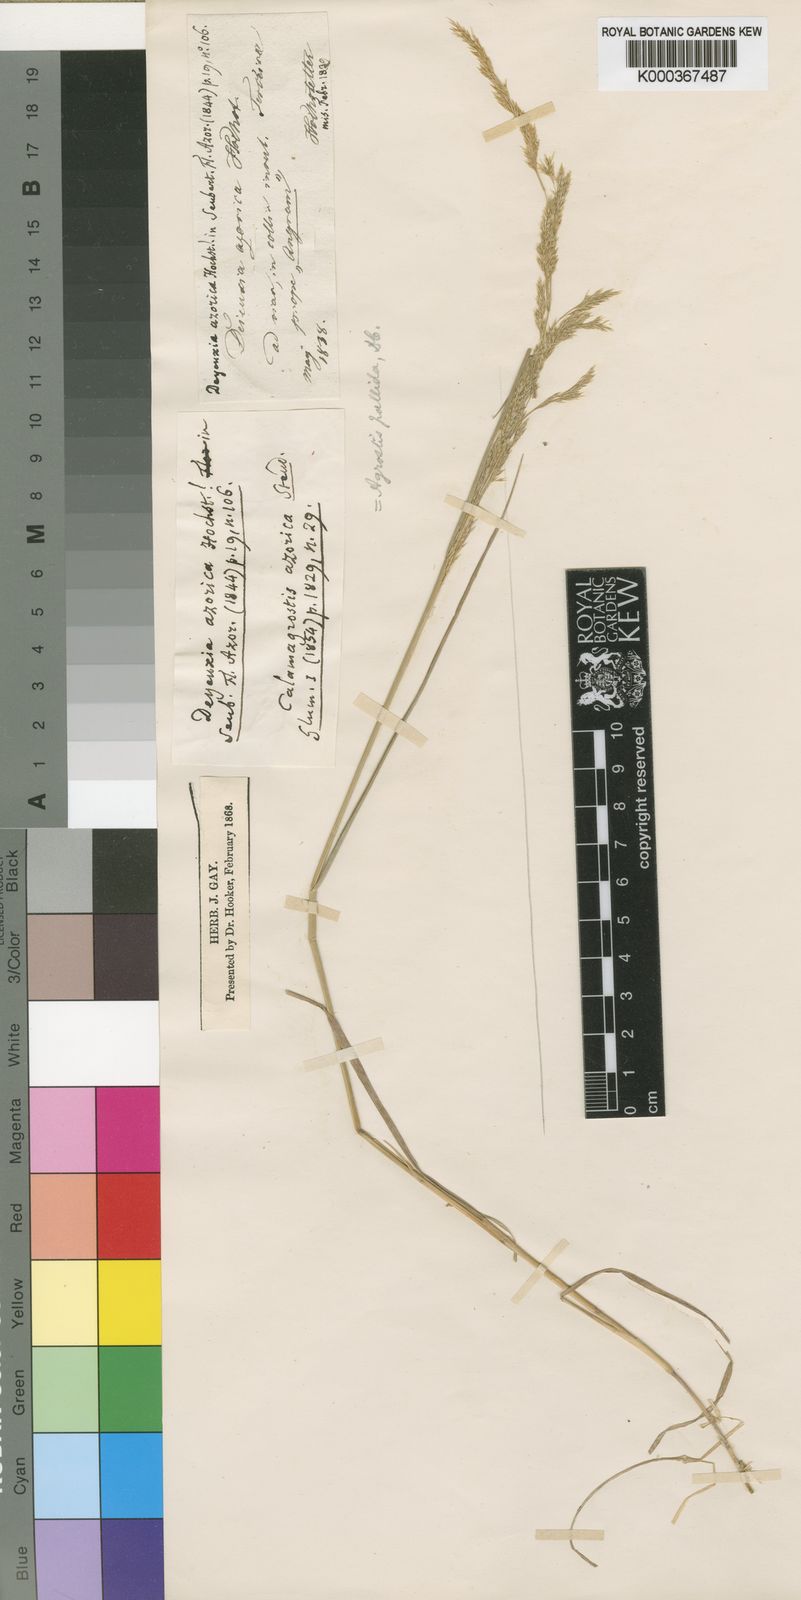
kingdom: Plantae
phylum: Tracheophyta
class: Liliopsida
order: Poales
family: Poaceae
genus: Agrostis
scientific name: Agrostis pourretii
